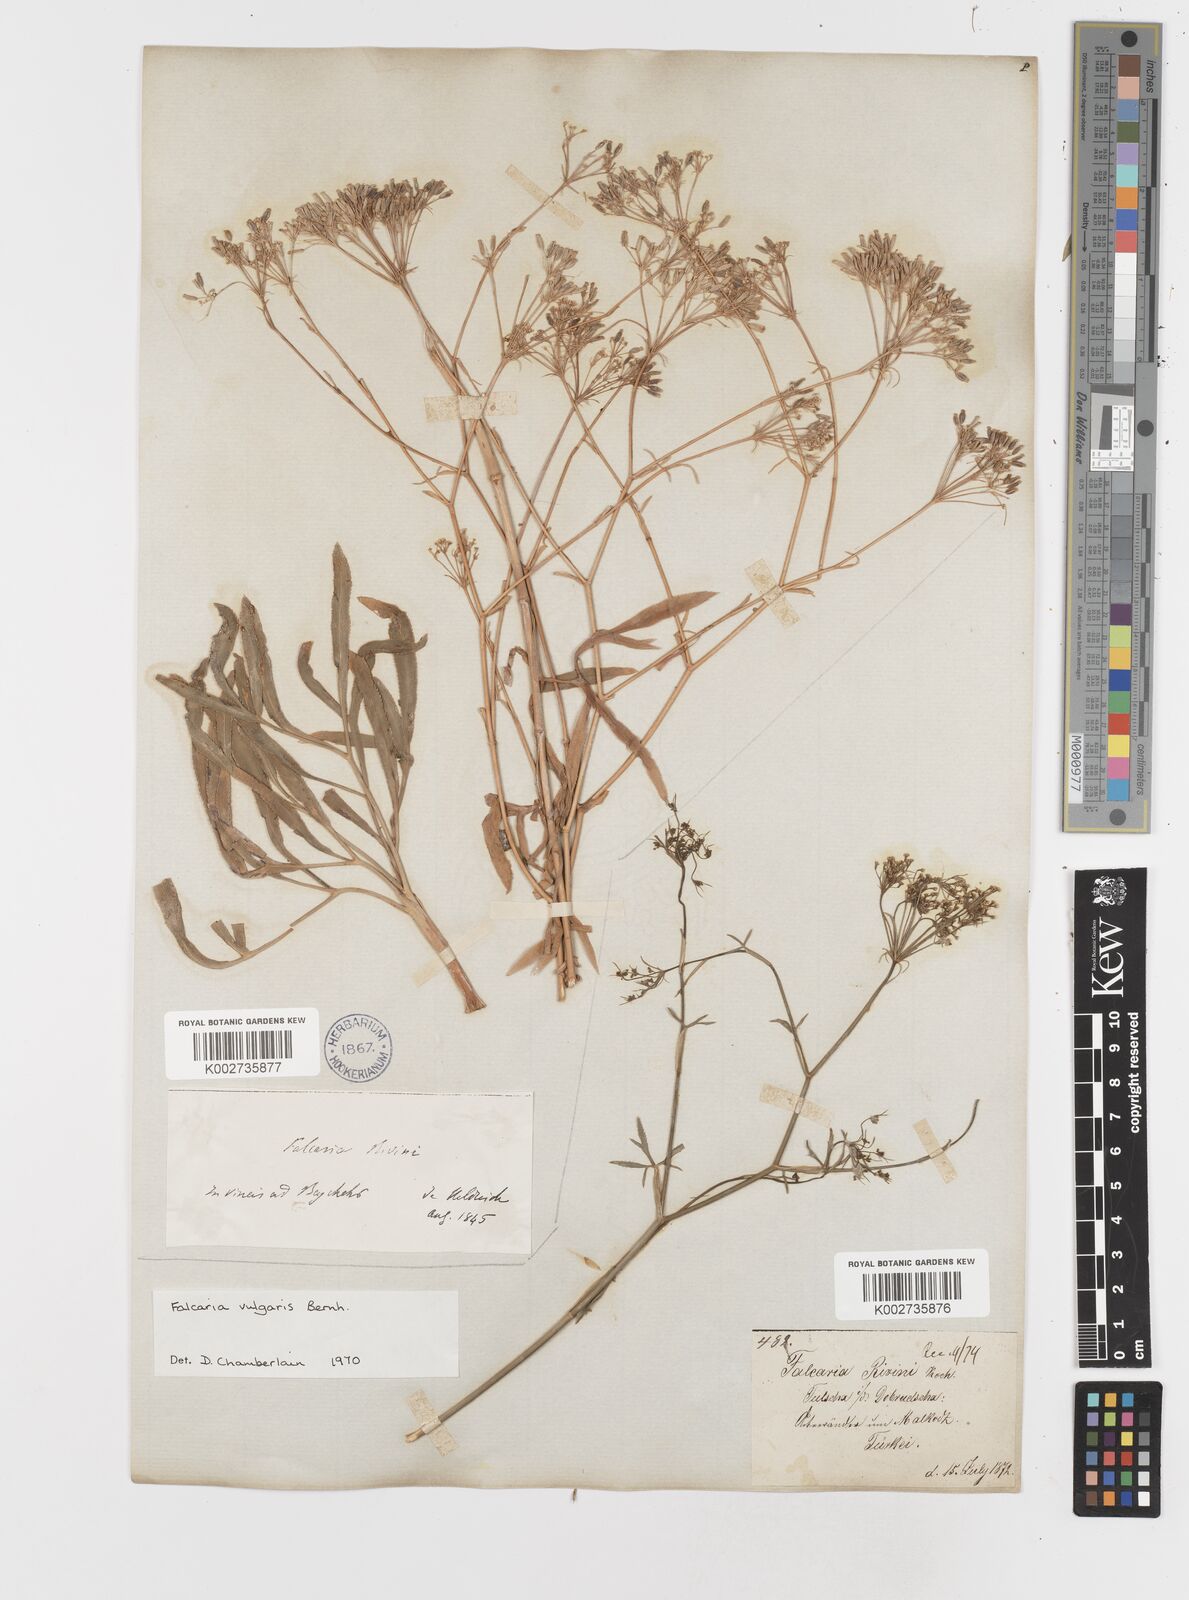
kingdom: Plantae
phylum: Tracheophyta
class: Magnoliopsida
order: Apiales
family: Apiaceae
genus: Falcaria
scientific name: Falcaria vulgaris
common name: Longleaf
